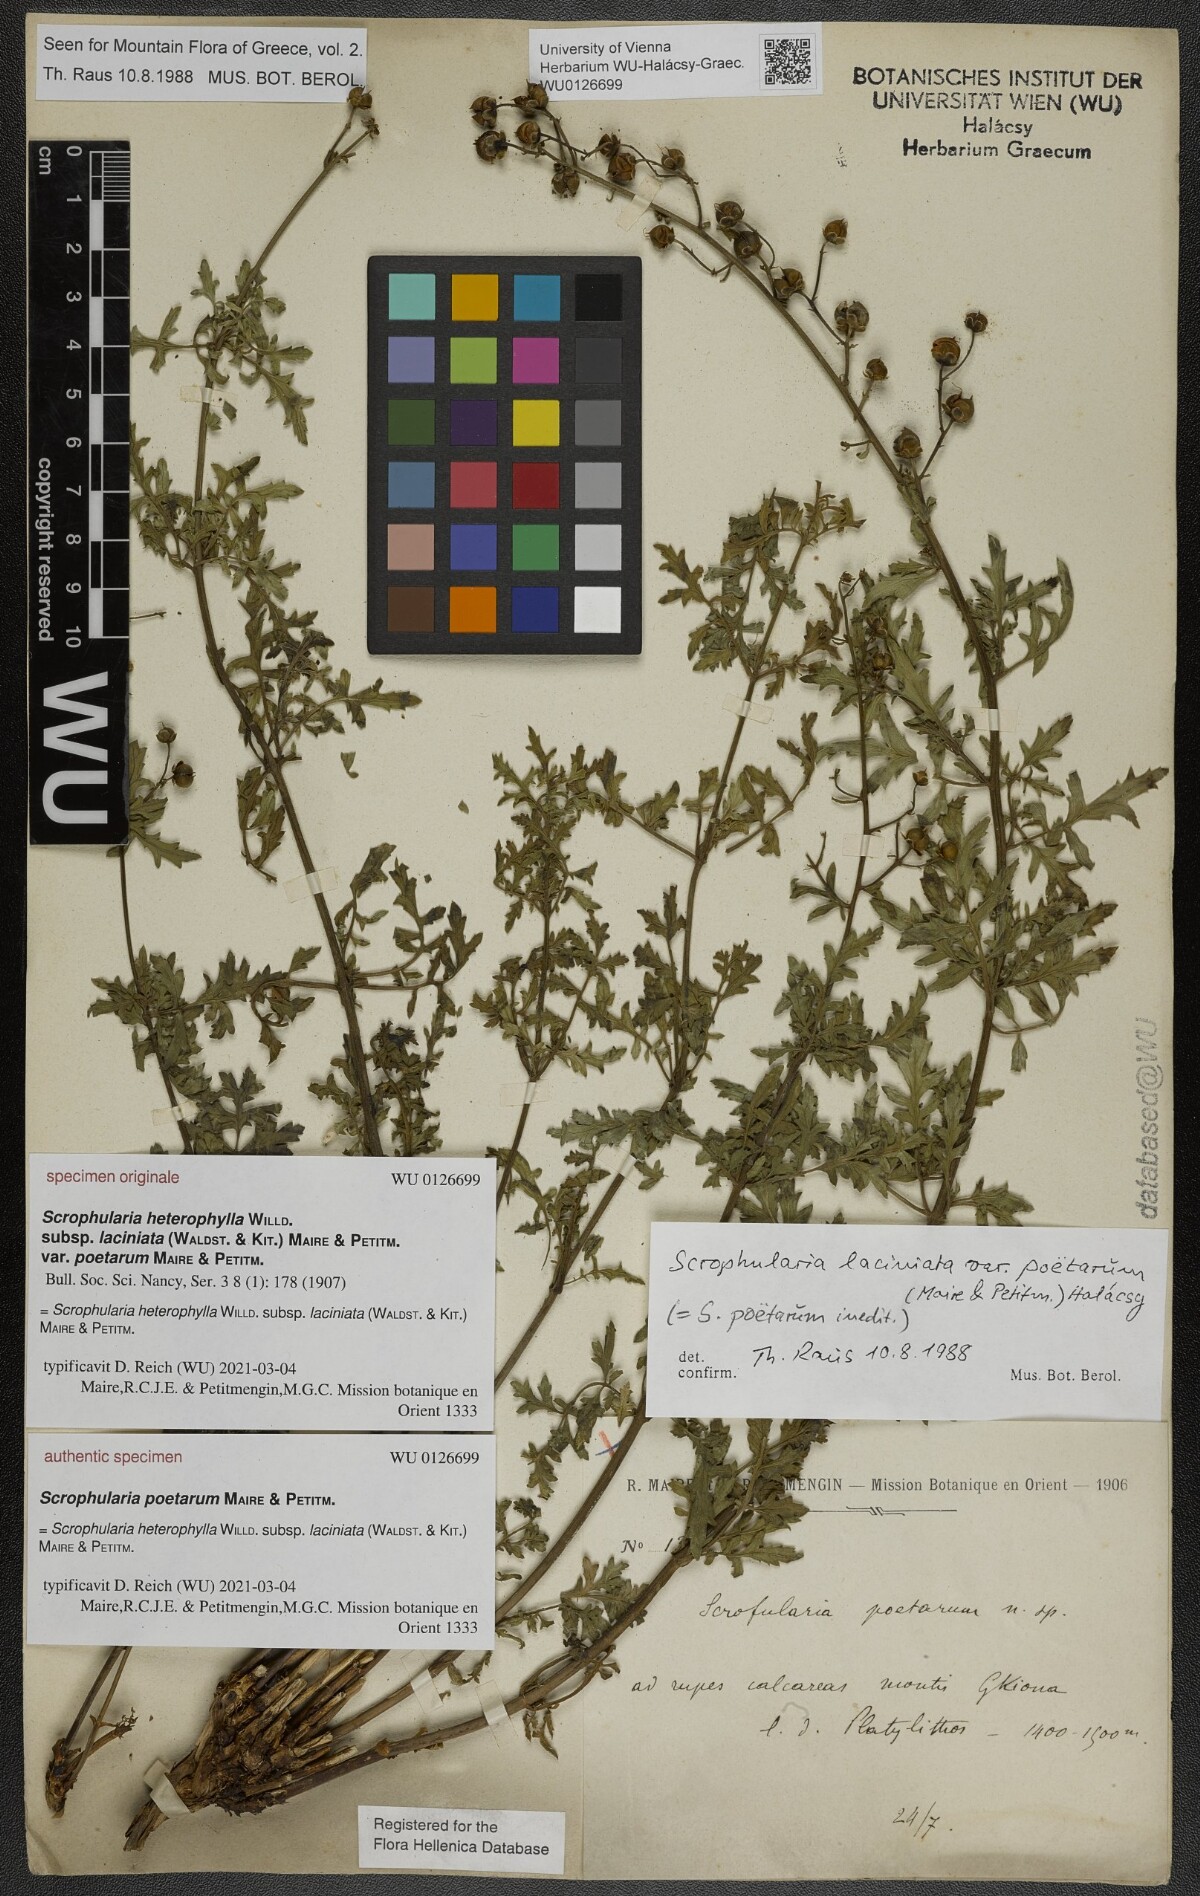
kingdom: Plantae
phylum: Tracheophyta
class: Magnoliopsida
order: Lamiales
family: Scrophulariaceae
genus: Scrophularia
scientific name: Scrophularia heterophylla
